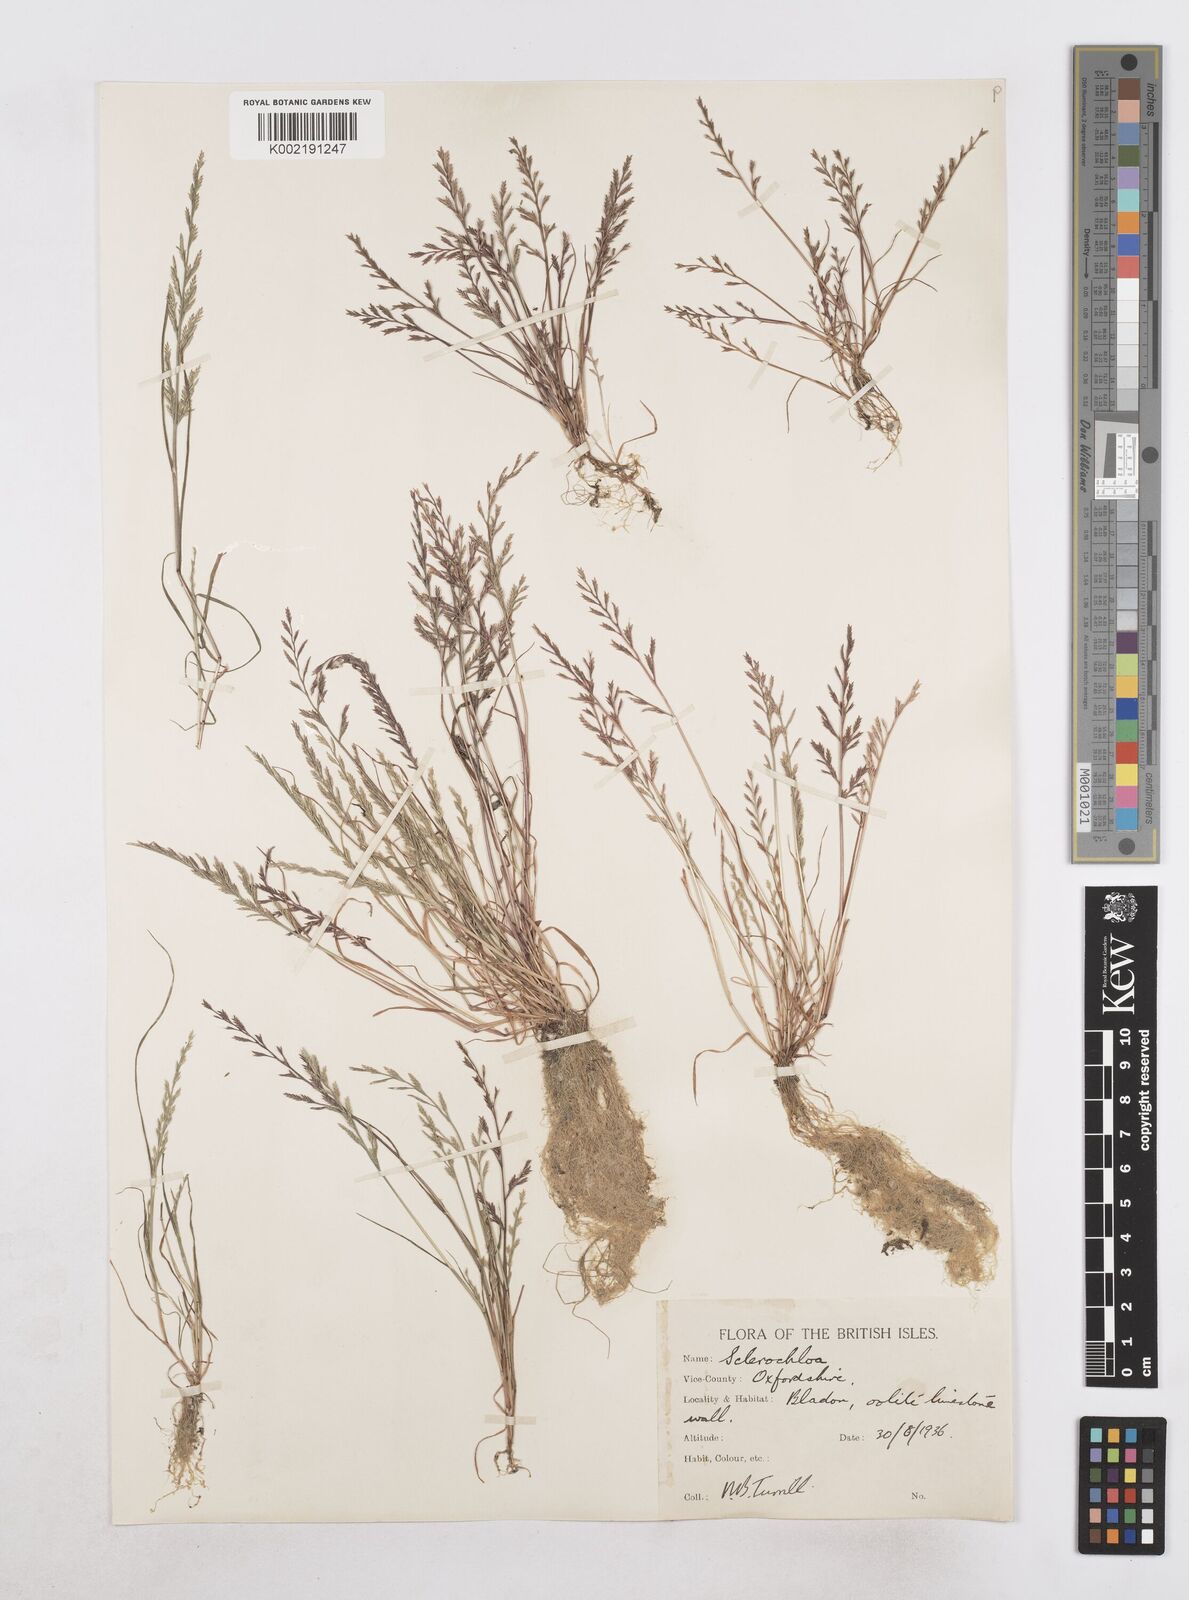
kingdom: Plantae
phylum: Tracheophyta
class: Liliopsida
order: Poales
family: Poaceae
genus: Catapodium
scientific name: Catapodium rigidum
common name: Fern-grass
